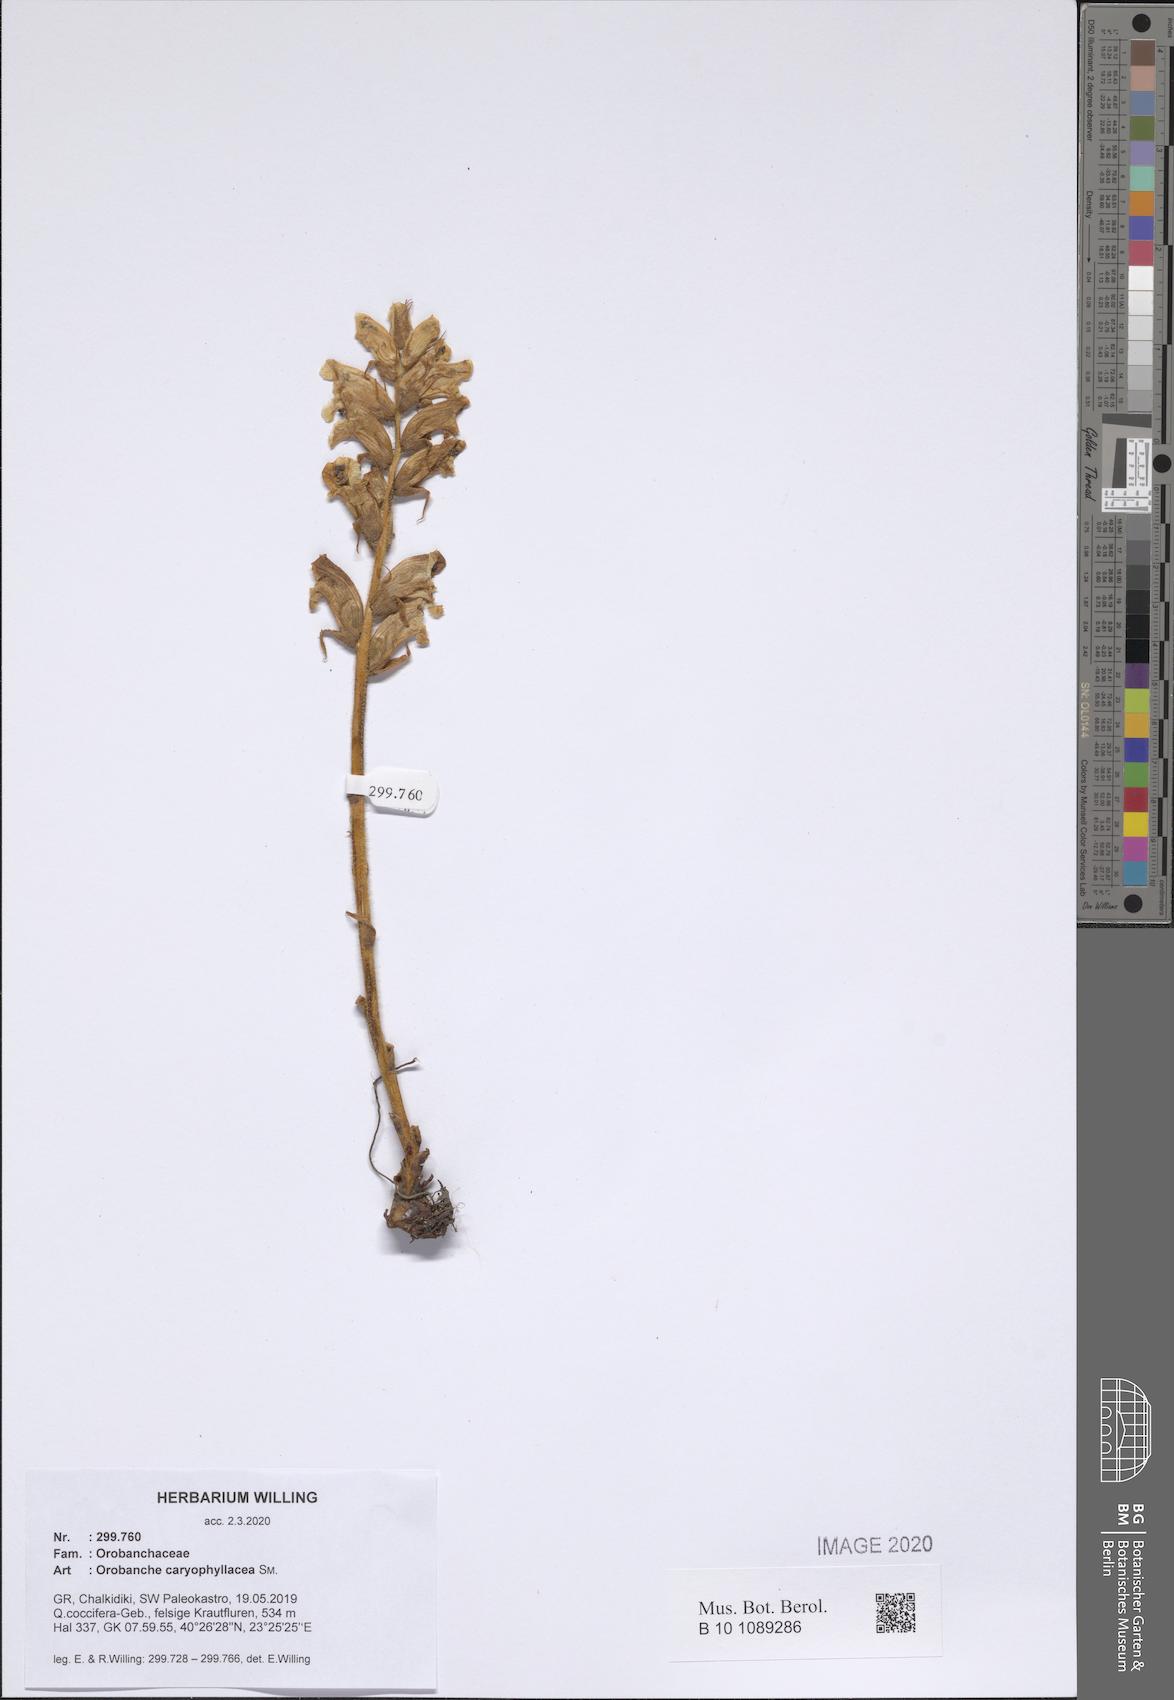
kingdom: Plantae
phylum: Tracheophyta
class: Magnoliopsida
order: Lamiales
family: Orobanchaceae
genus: Orobanche
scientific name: Orobanche caryophyllacea
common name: Bedstraw broomrape
